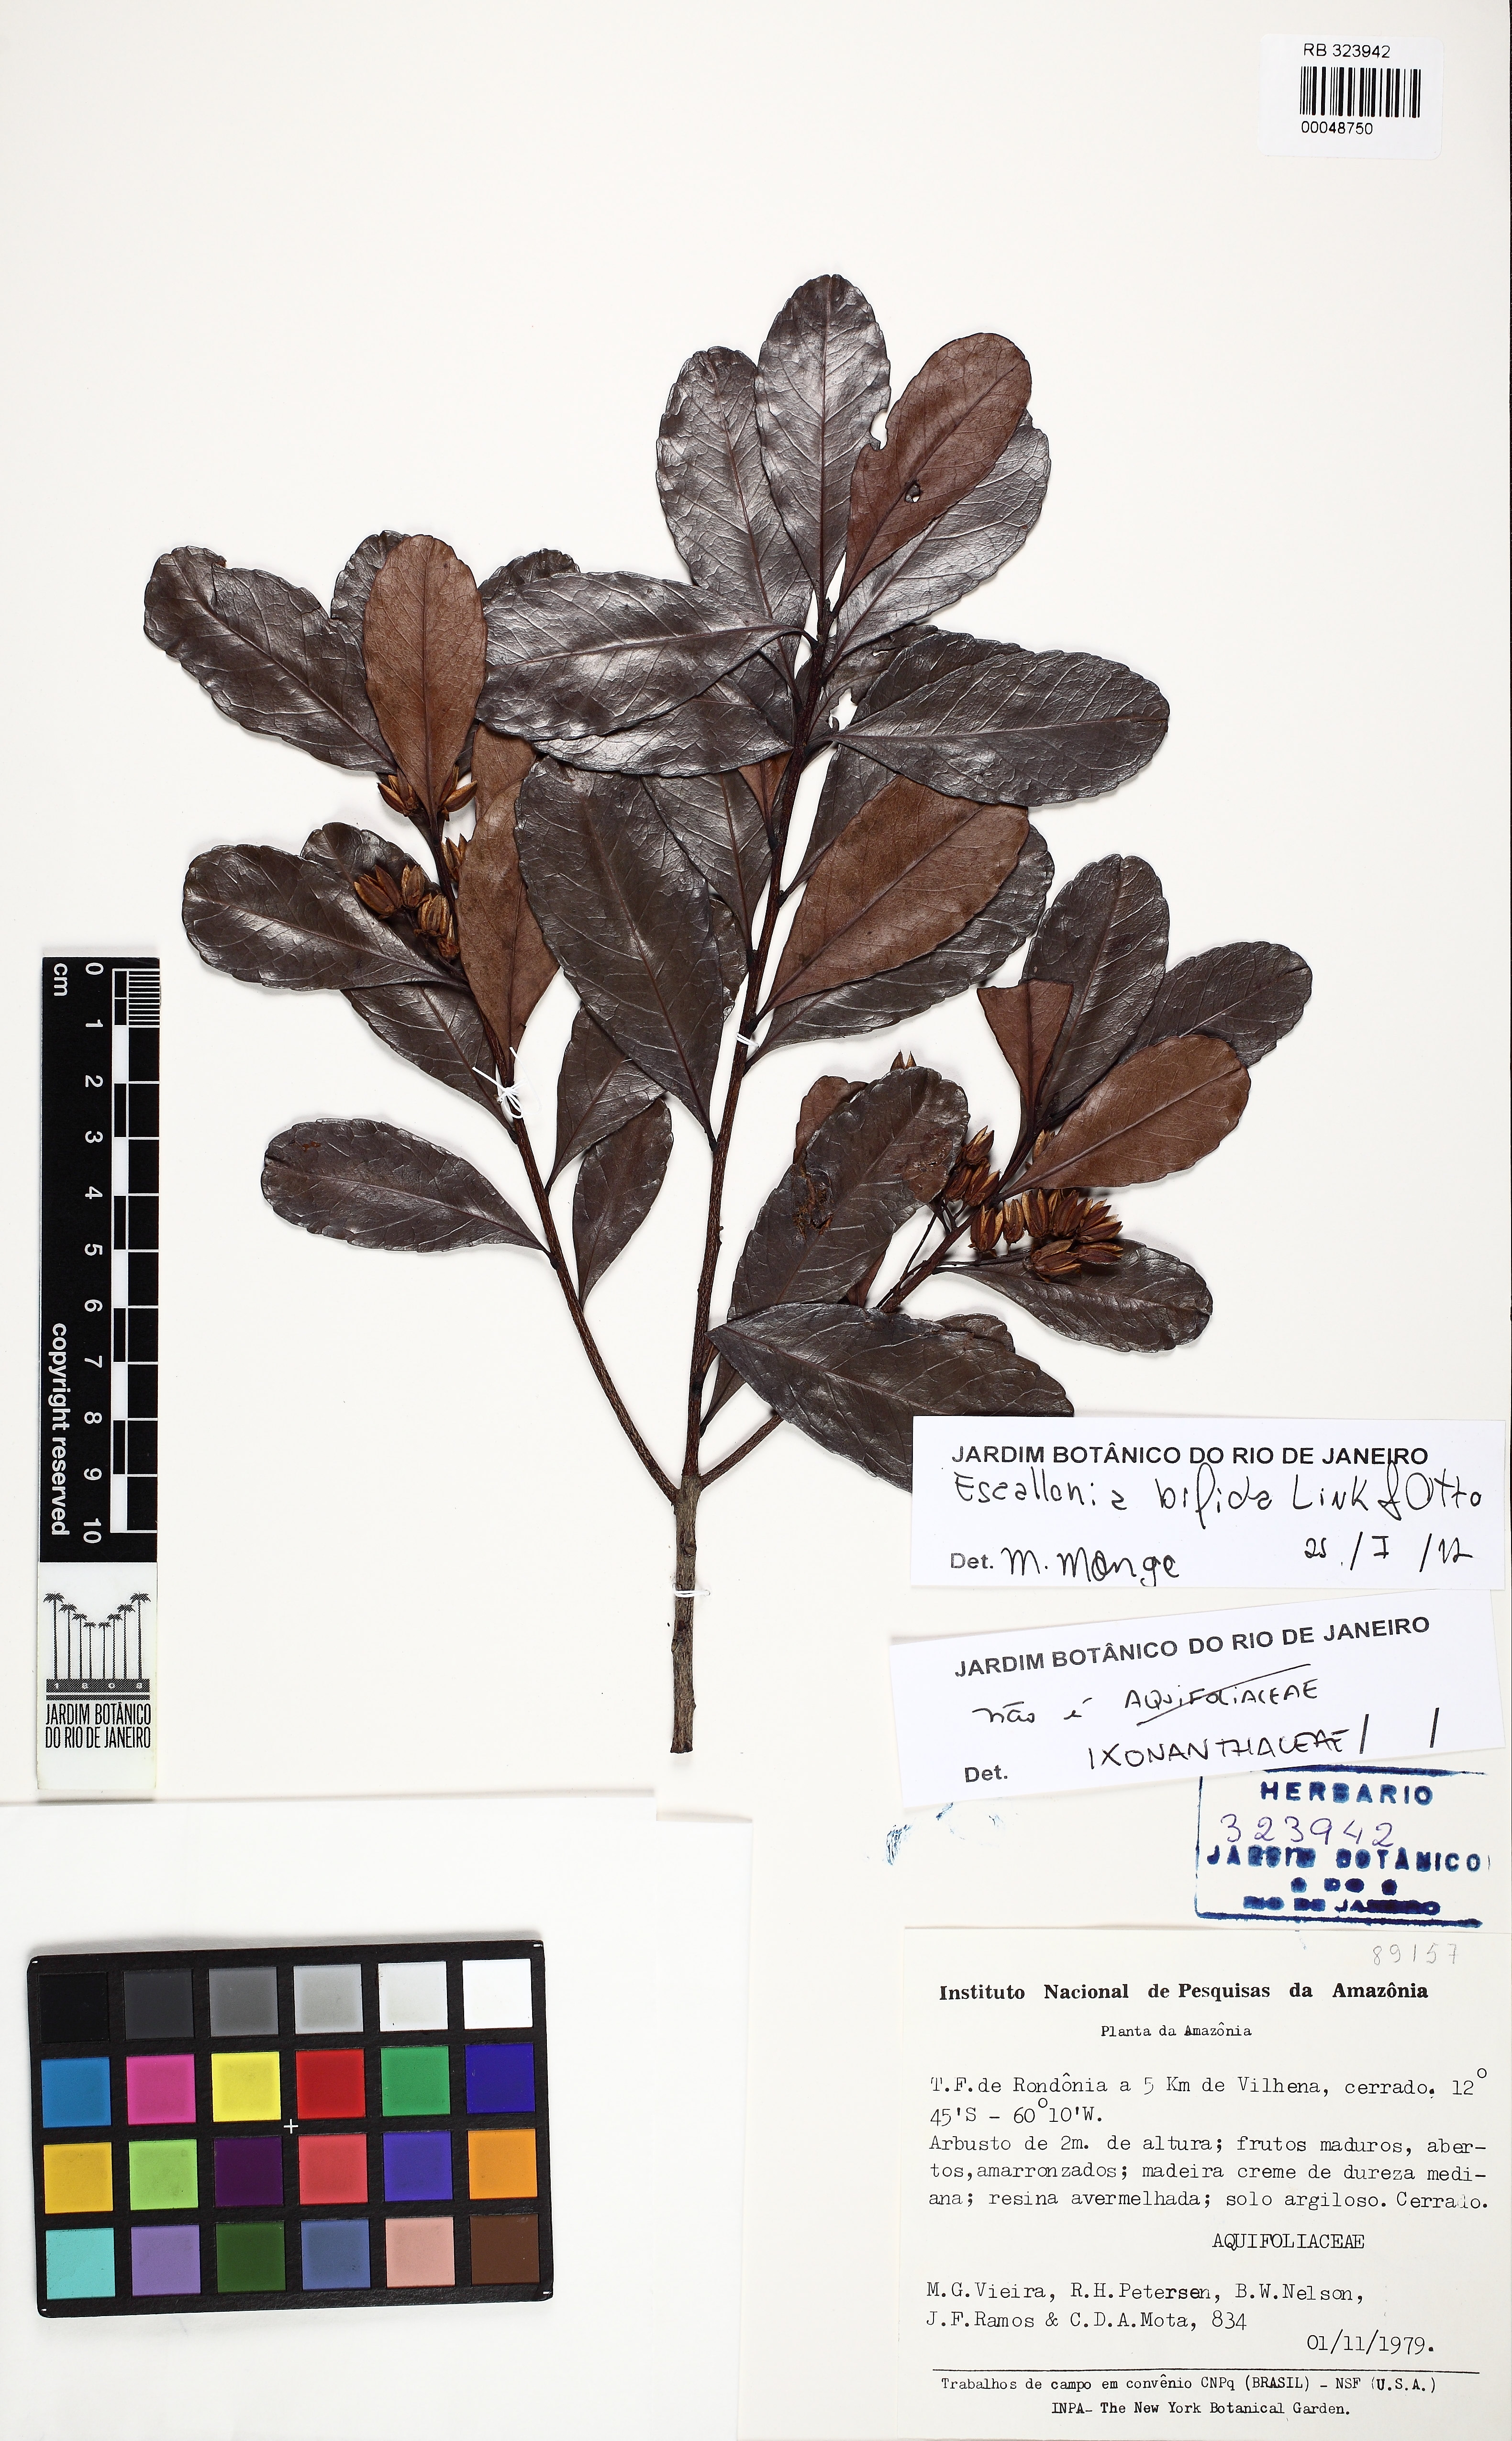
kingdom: Plantae
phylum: Tracheophyta
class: Magnoliopsida
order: Escalloniales
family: Escalloniaceae
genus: Escallonia
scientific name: Escallonia bifida
